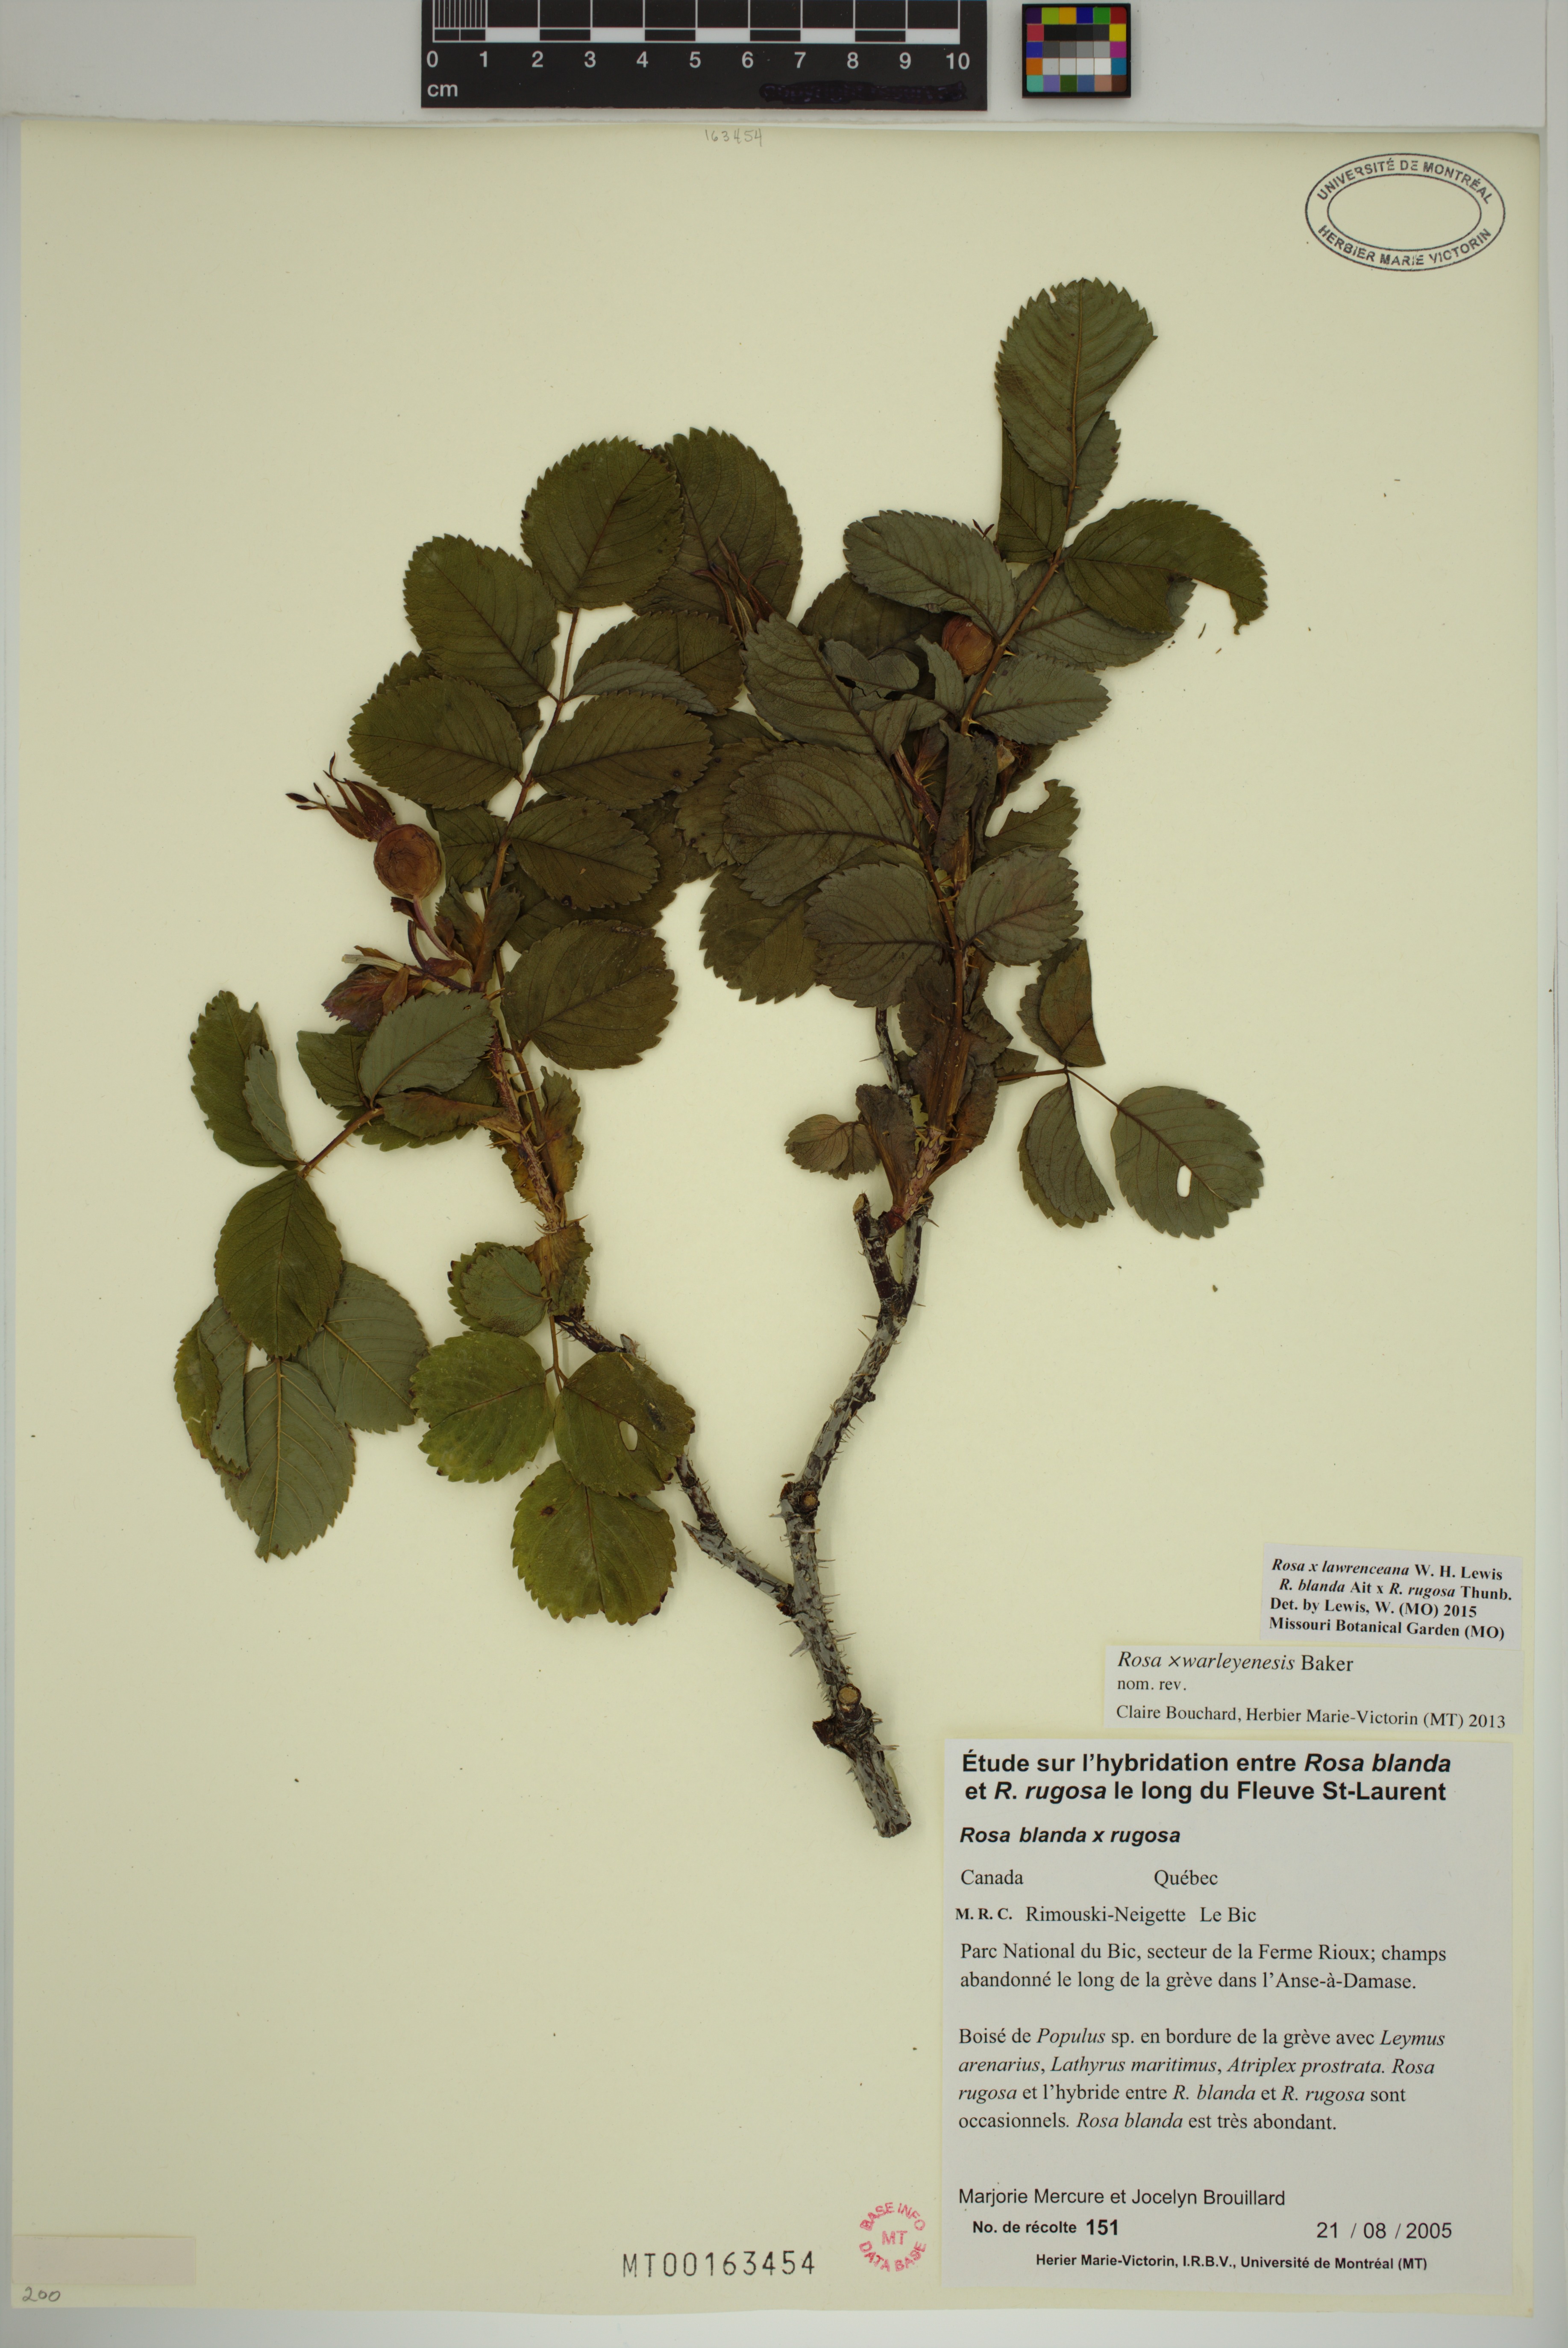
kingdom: Plantae
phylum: Tracheophyta
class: Magnoliopsida
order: Rosales
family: Rosaceae
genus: Rosa
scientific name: Rosa chinensis
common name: China rose
